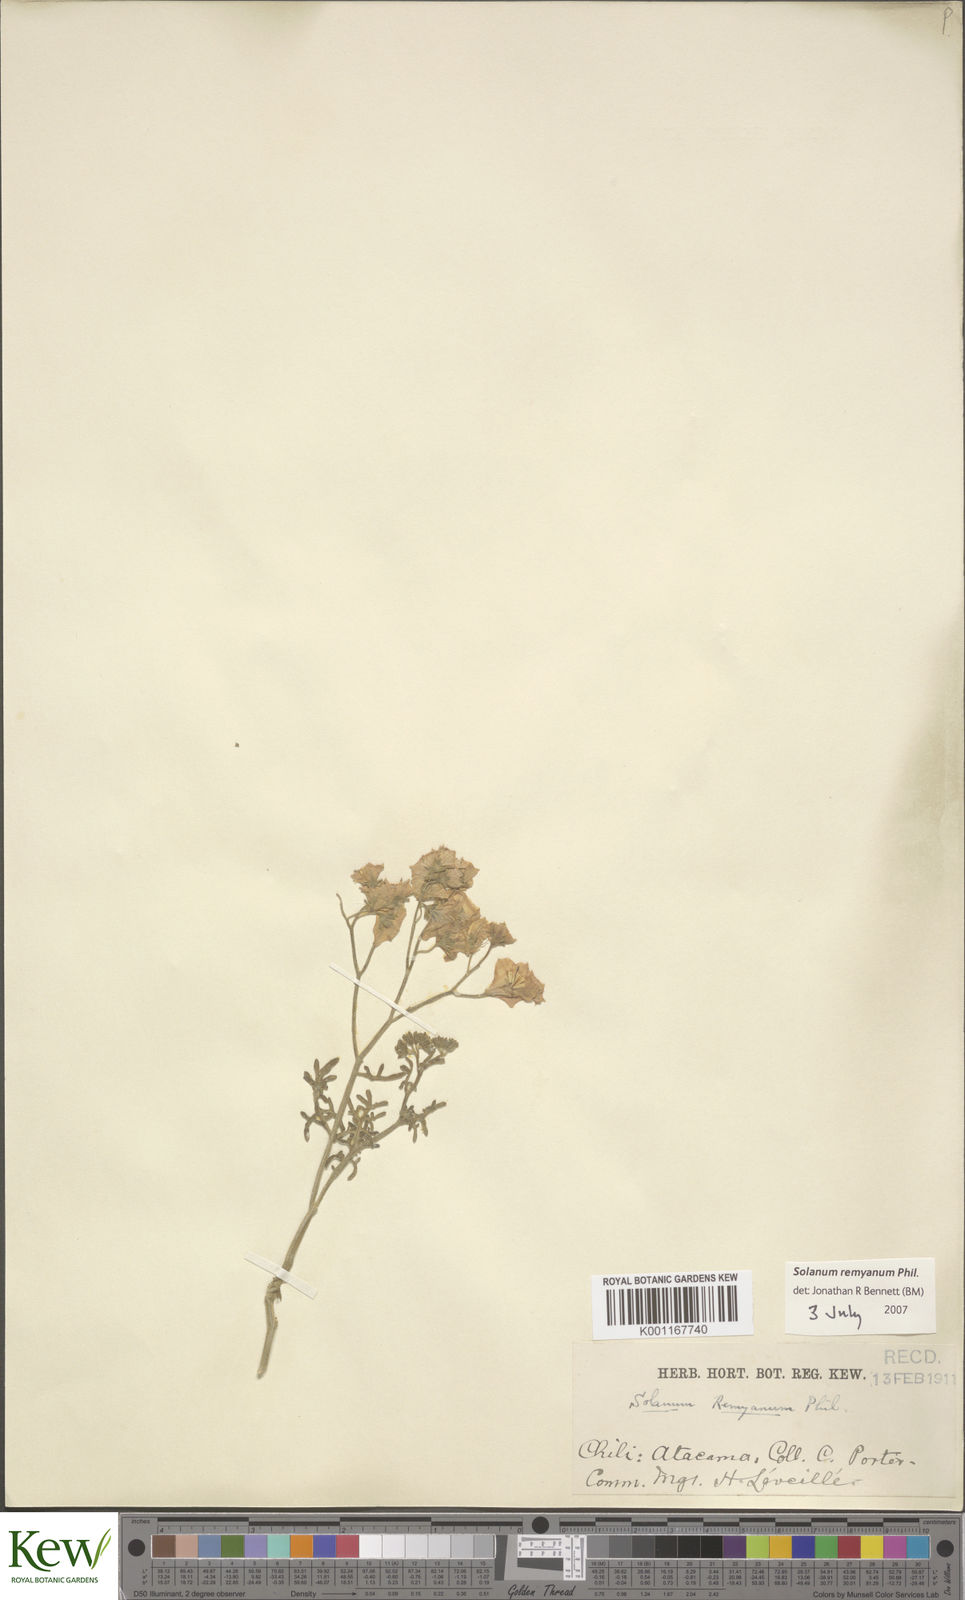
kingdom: Plantae
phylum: Tracheophyta
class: Magnoliopsida
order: Solanales
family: Solanaceae
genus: Solanum
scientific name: Solanum remyanum
